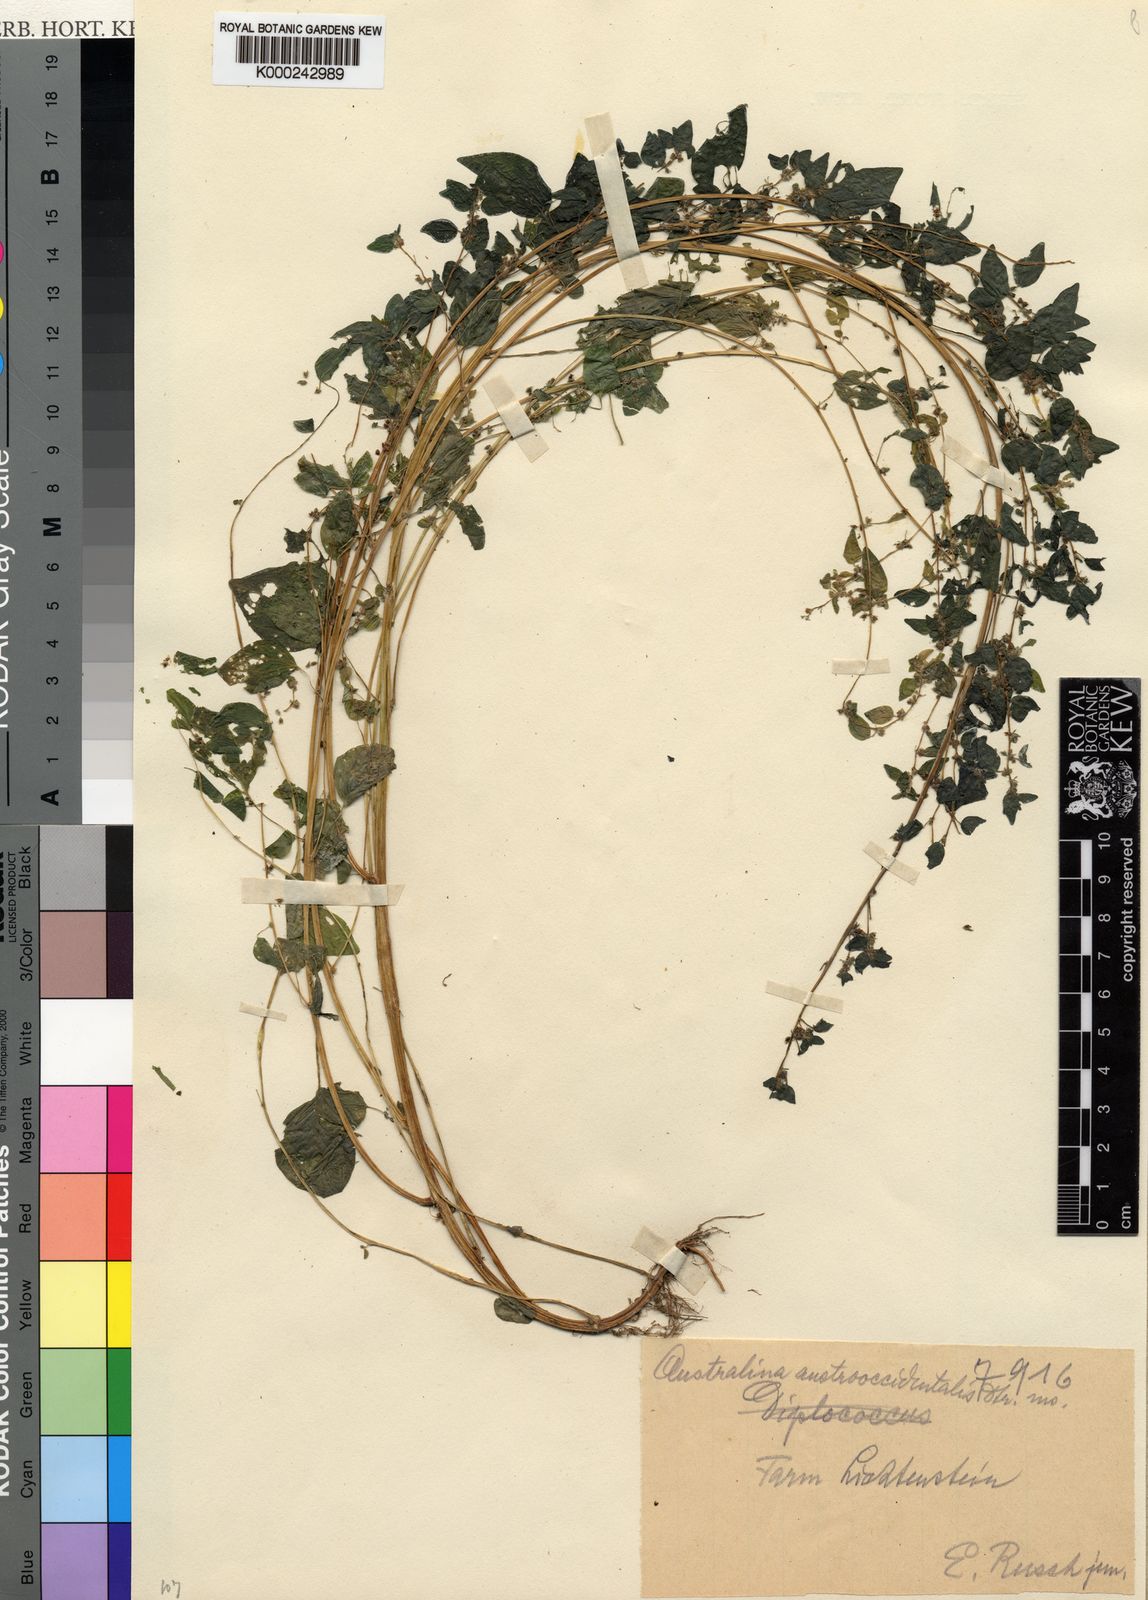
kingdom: Plantae
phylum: Tracheophyta
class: Magnoliopsida
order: Rosales
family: Urticaceae
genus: Parietaria
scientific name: Parietaria debilis
